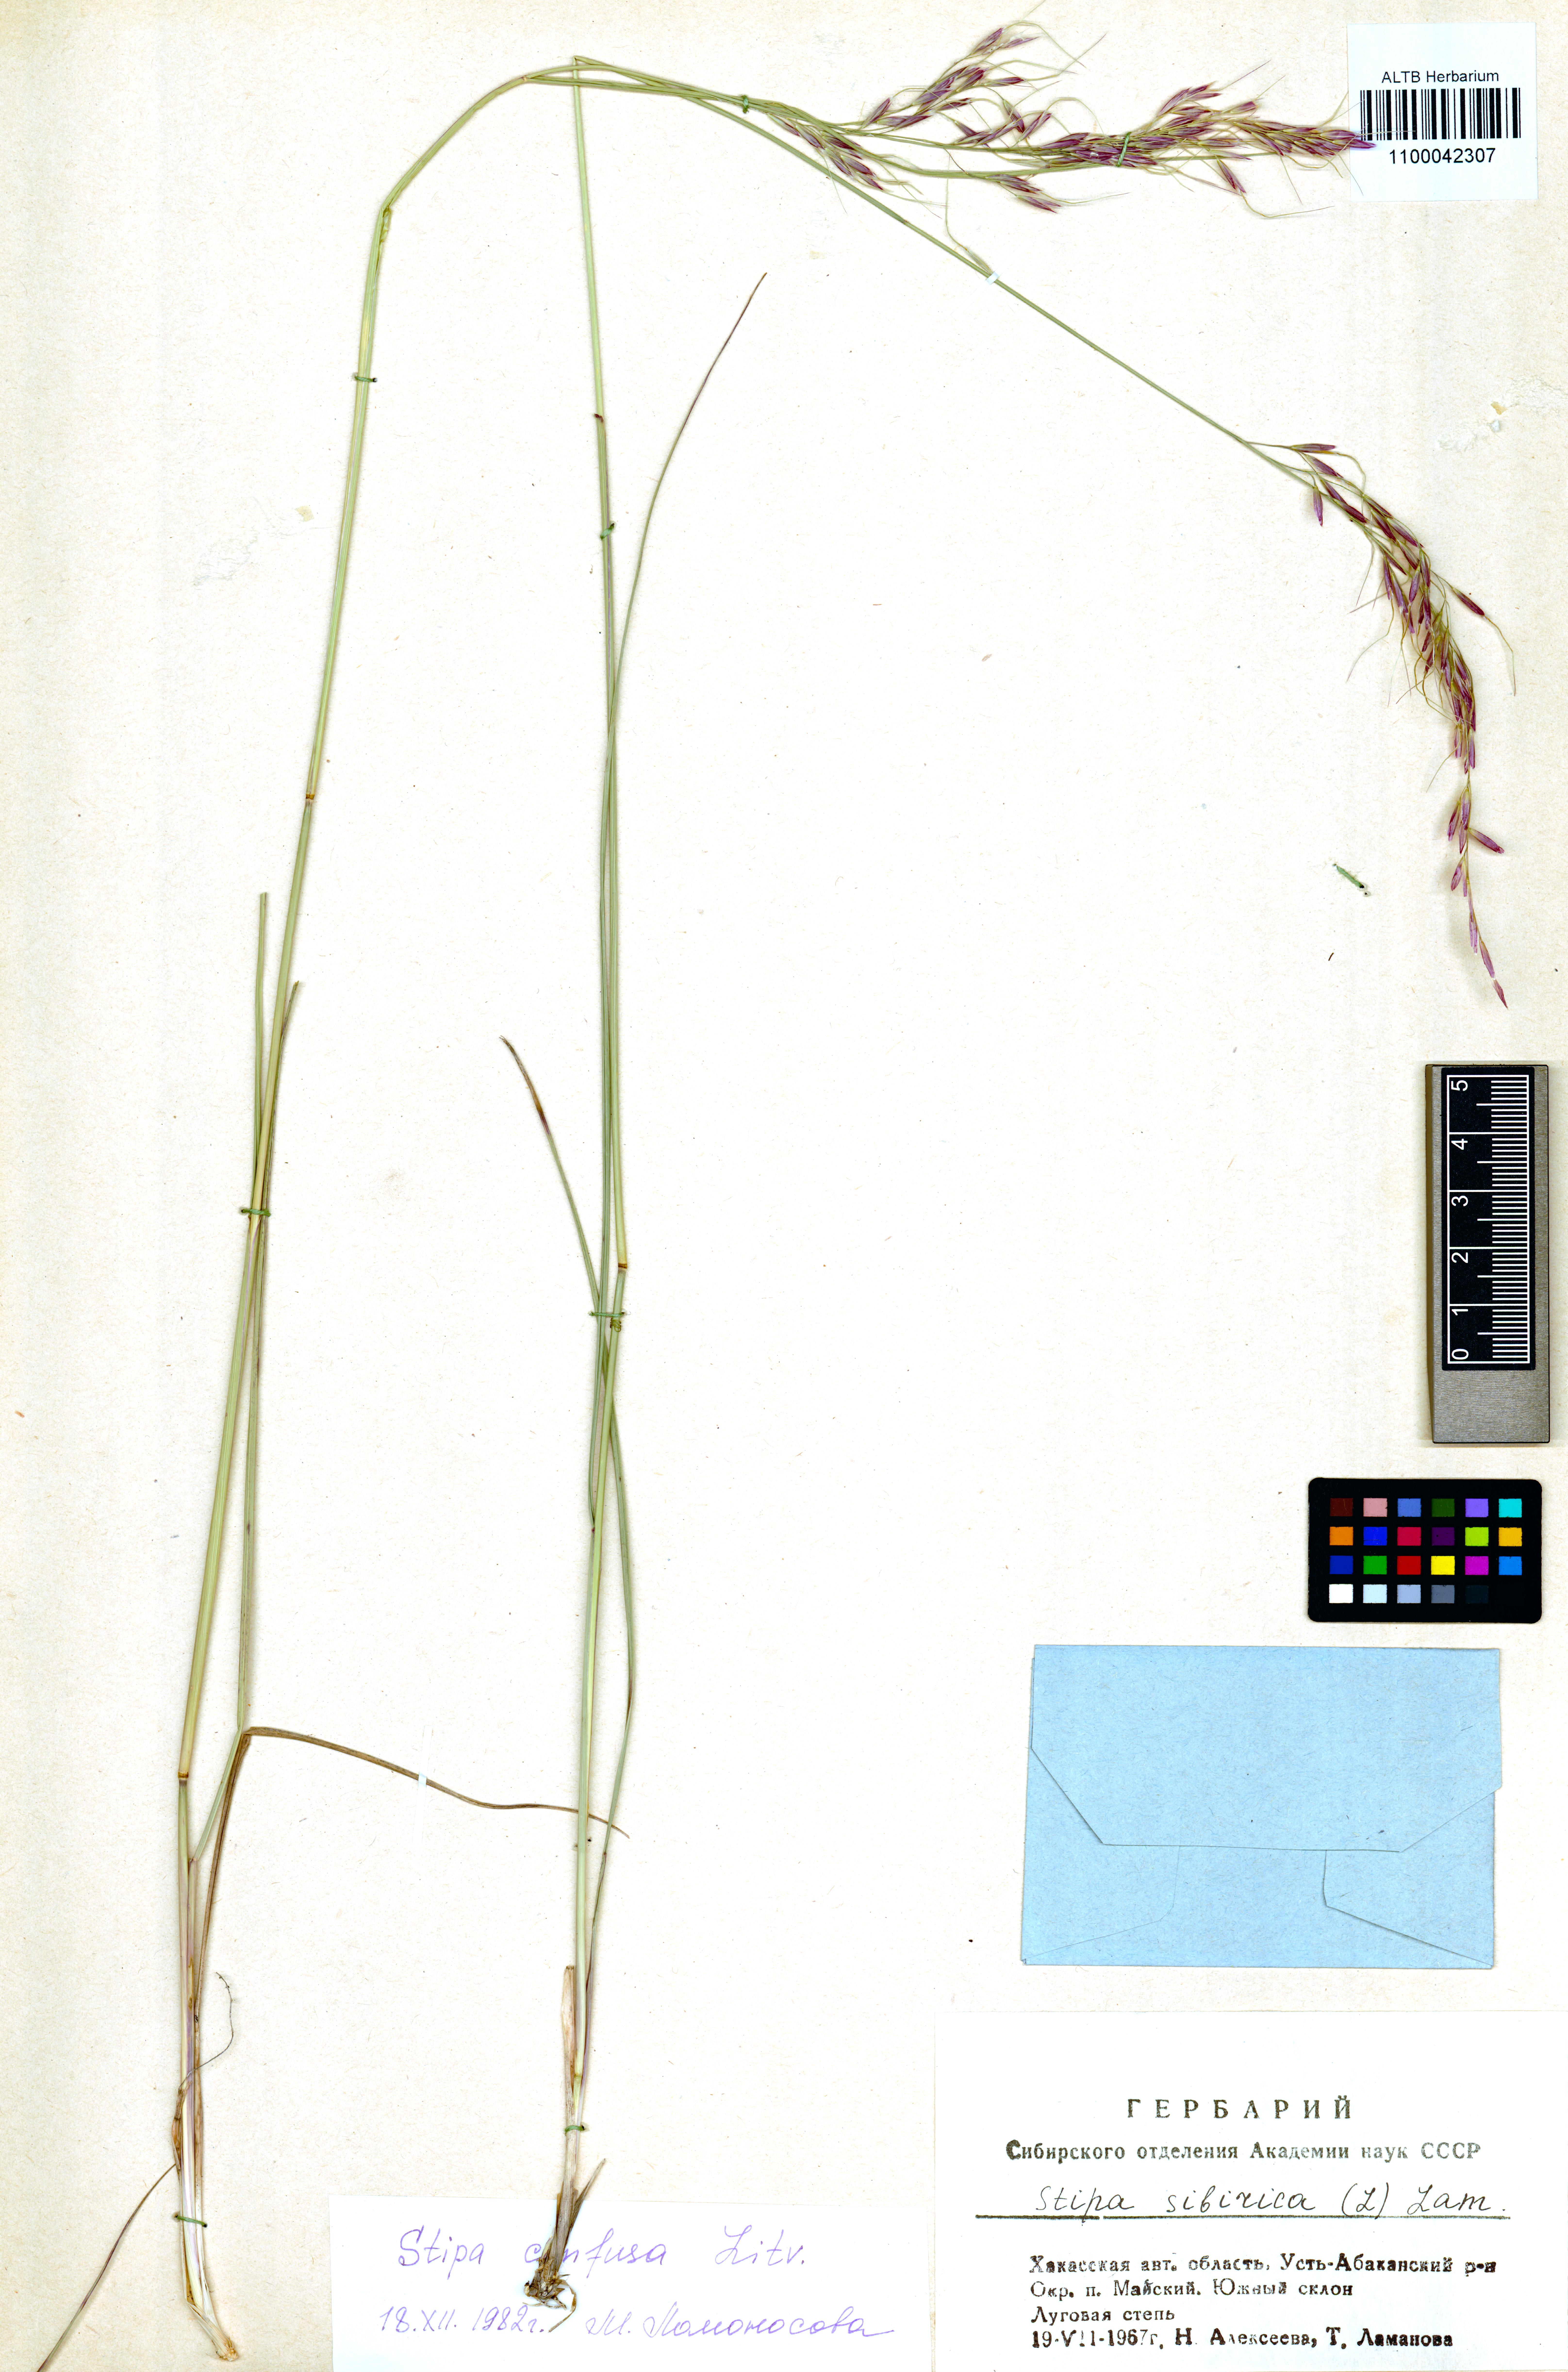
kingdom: Plantae
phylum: Tracheophyta
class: Liliopsida
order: Poales
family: Poaceae
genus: Achnatherum
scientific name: Achnatherum confusum
